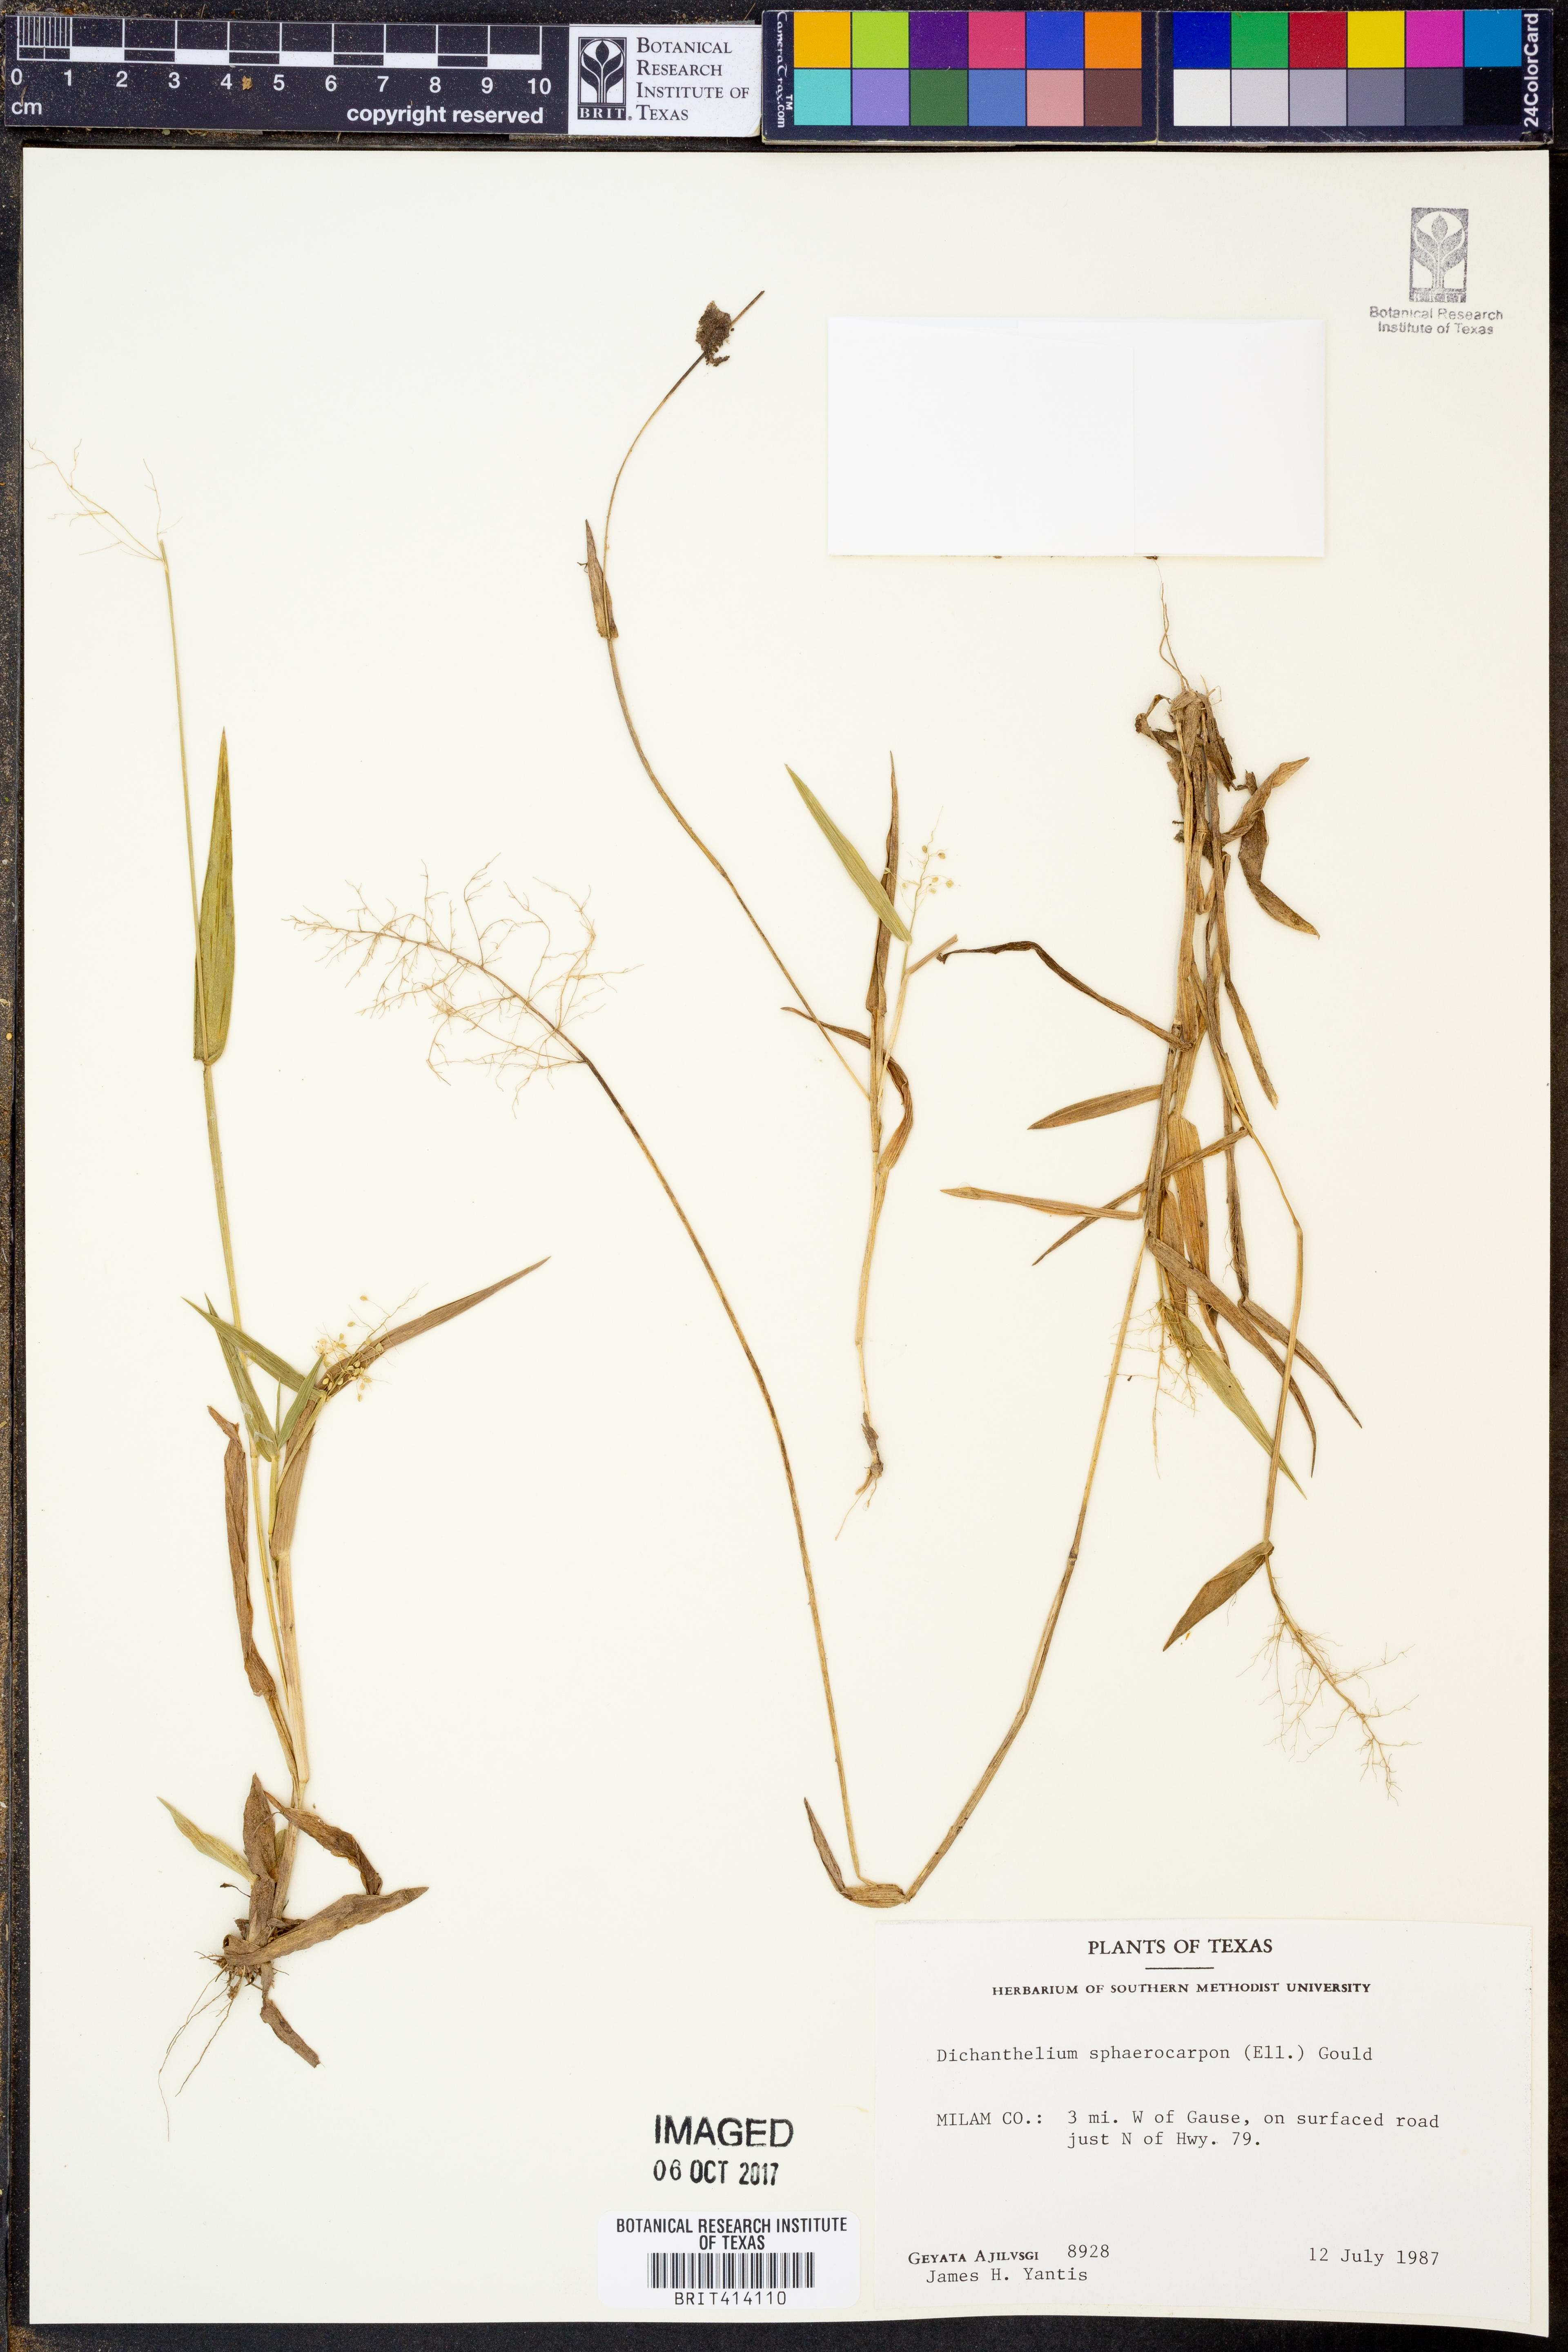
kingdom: Plantae
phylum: Tracheophyta
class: Liliopsida
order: Poales
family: Poaceae
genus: Dichanthelium
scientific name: Dichanthelium sphaerocarpon
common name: Round-fruited panicgrass
